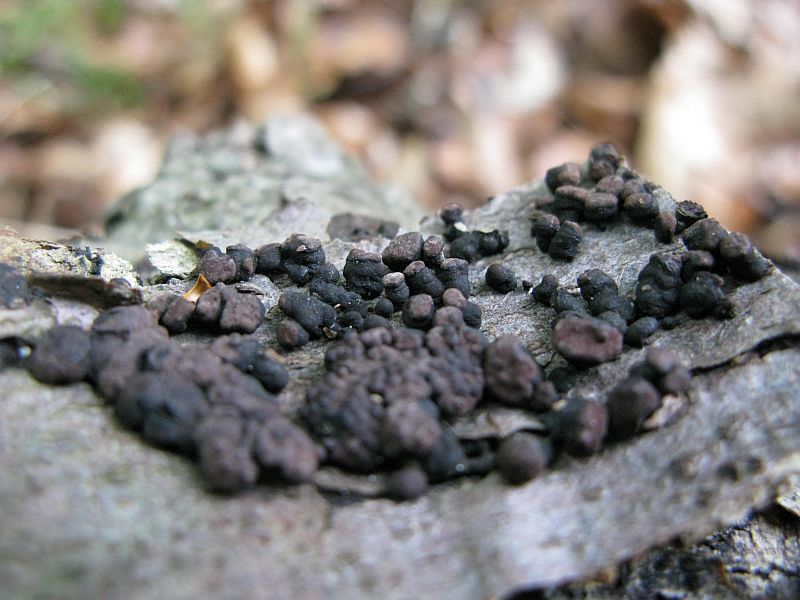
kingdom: Fungi
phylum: Ascomycota
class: Sordariomycetes
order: Xylariales
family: Hypoxylaceae
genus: Jackrogersella
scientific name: Jackrogersella cohaerens
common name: sammenflydende kulbær
